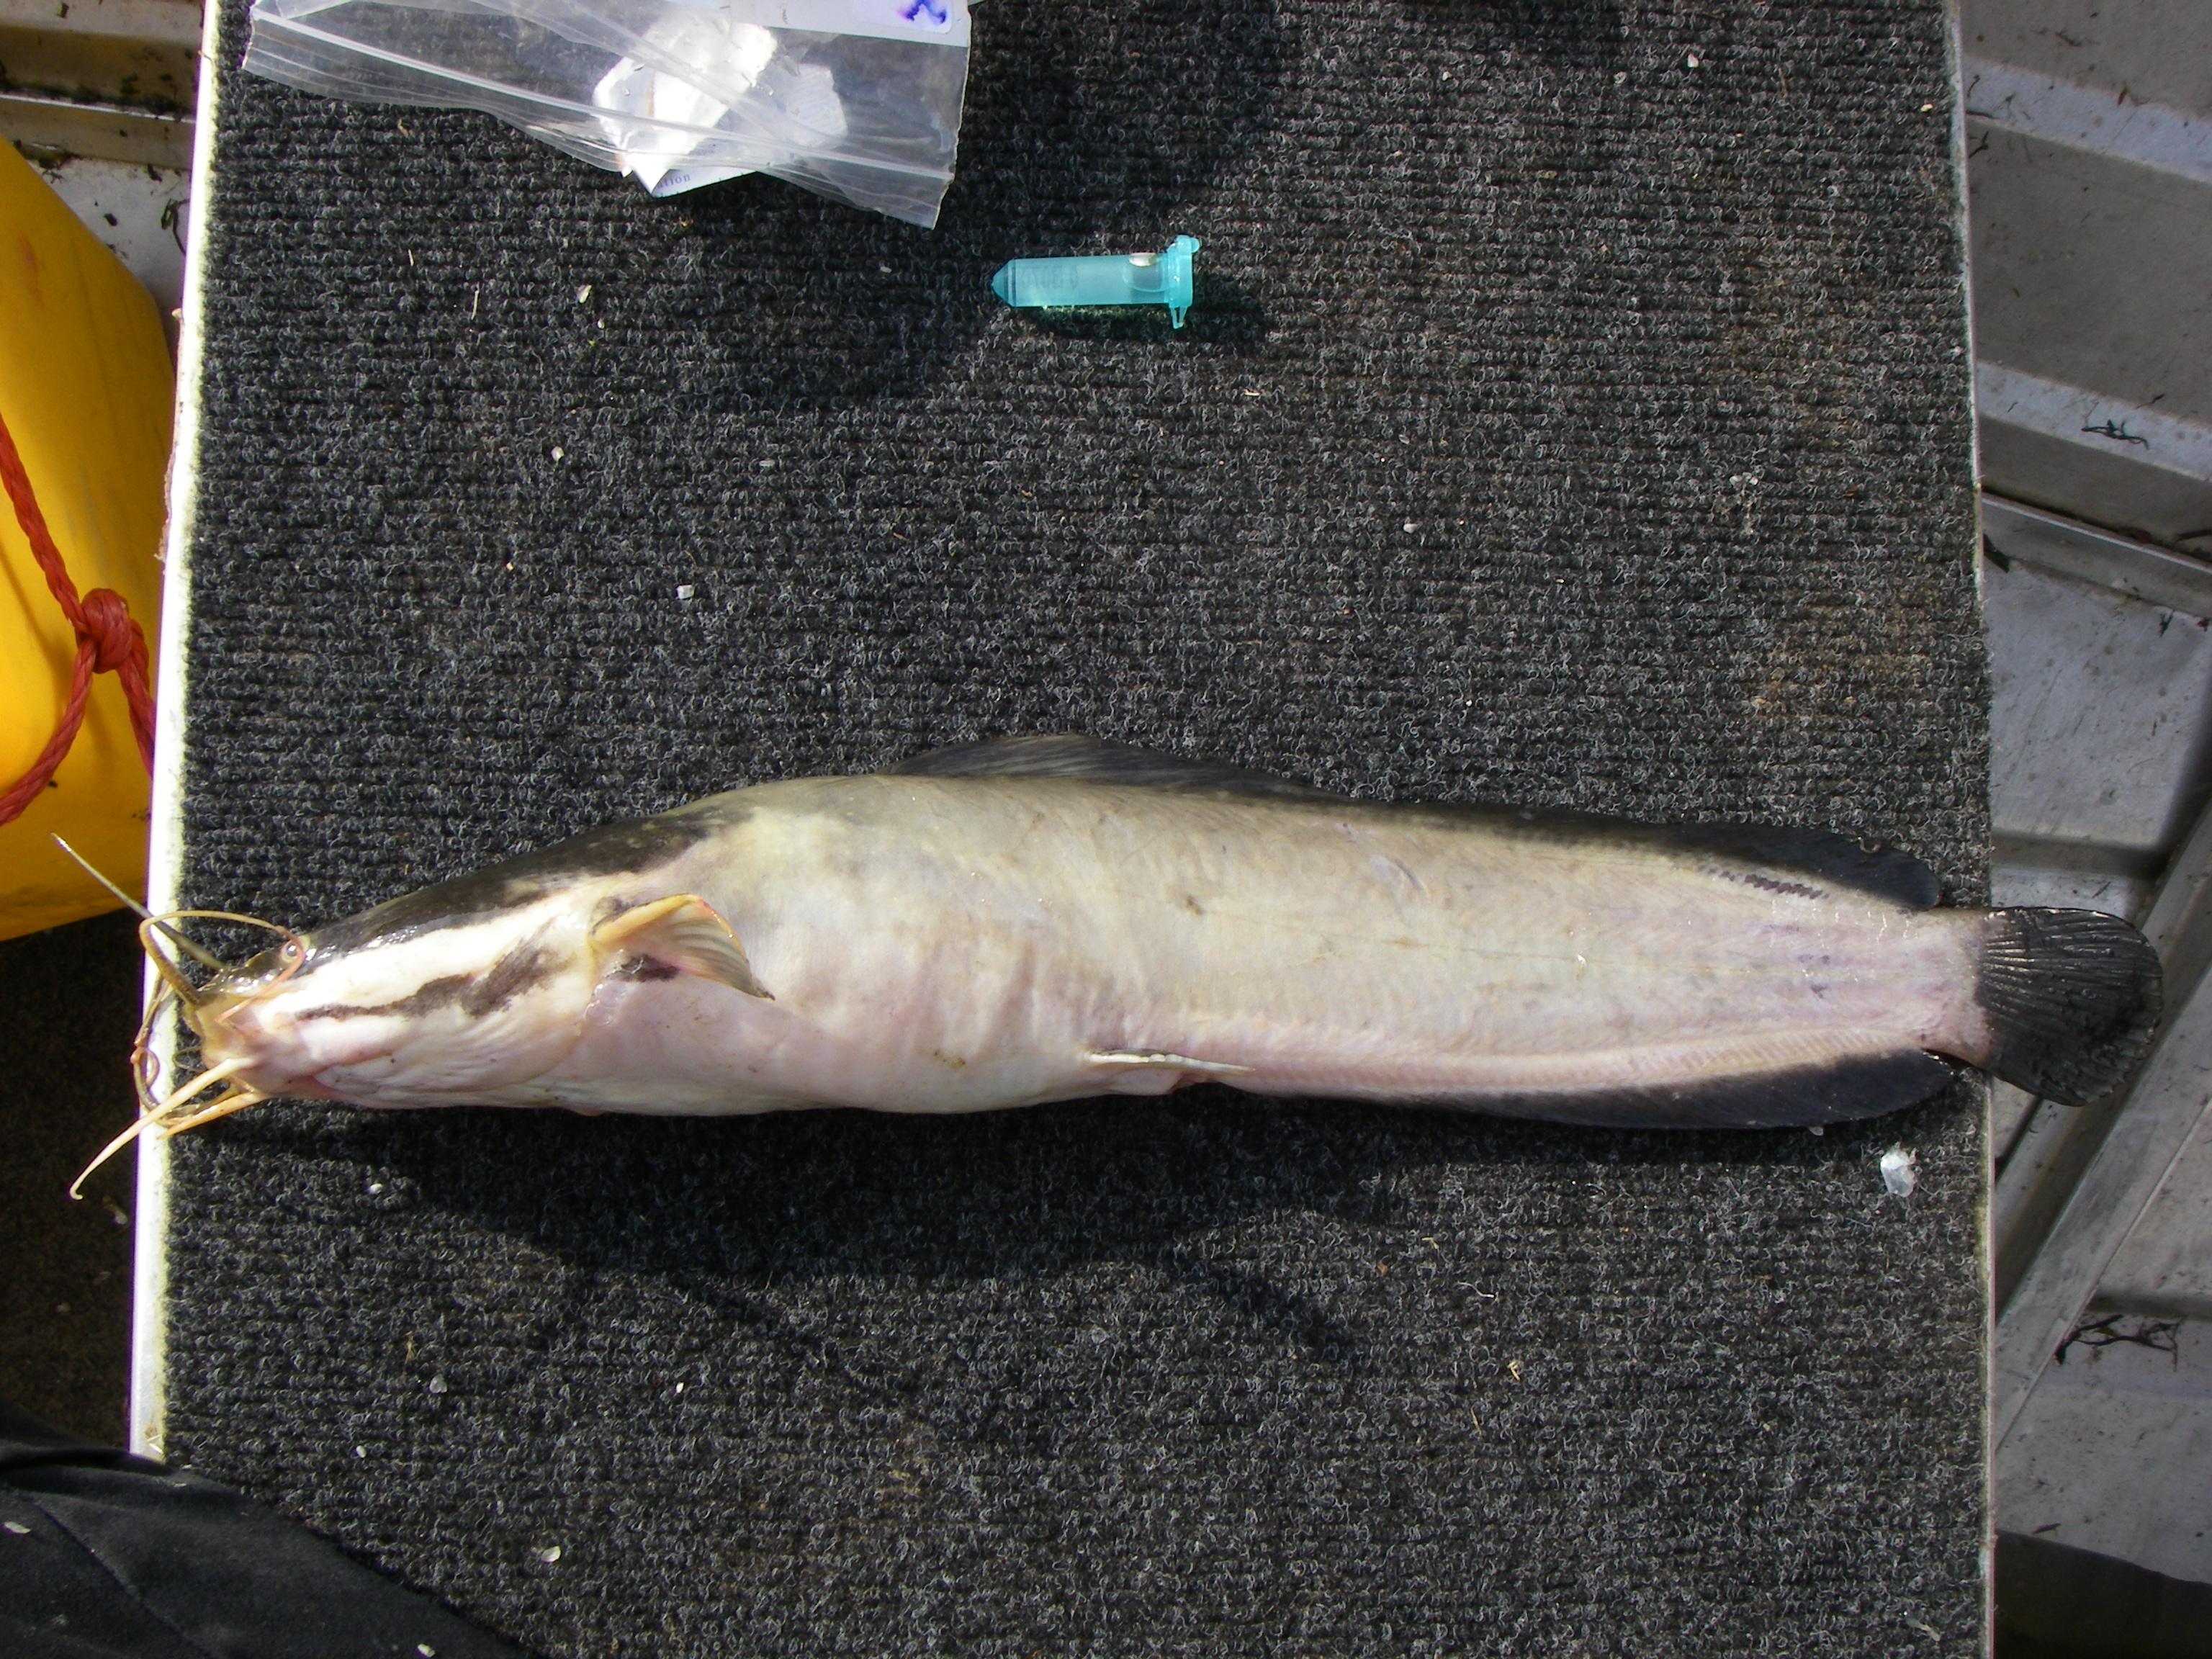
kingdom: Animalia
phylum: Chordata
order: Siluriformes
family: Clariidae
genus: Clarias
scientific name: Clarias gariepinus
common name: African catfish
